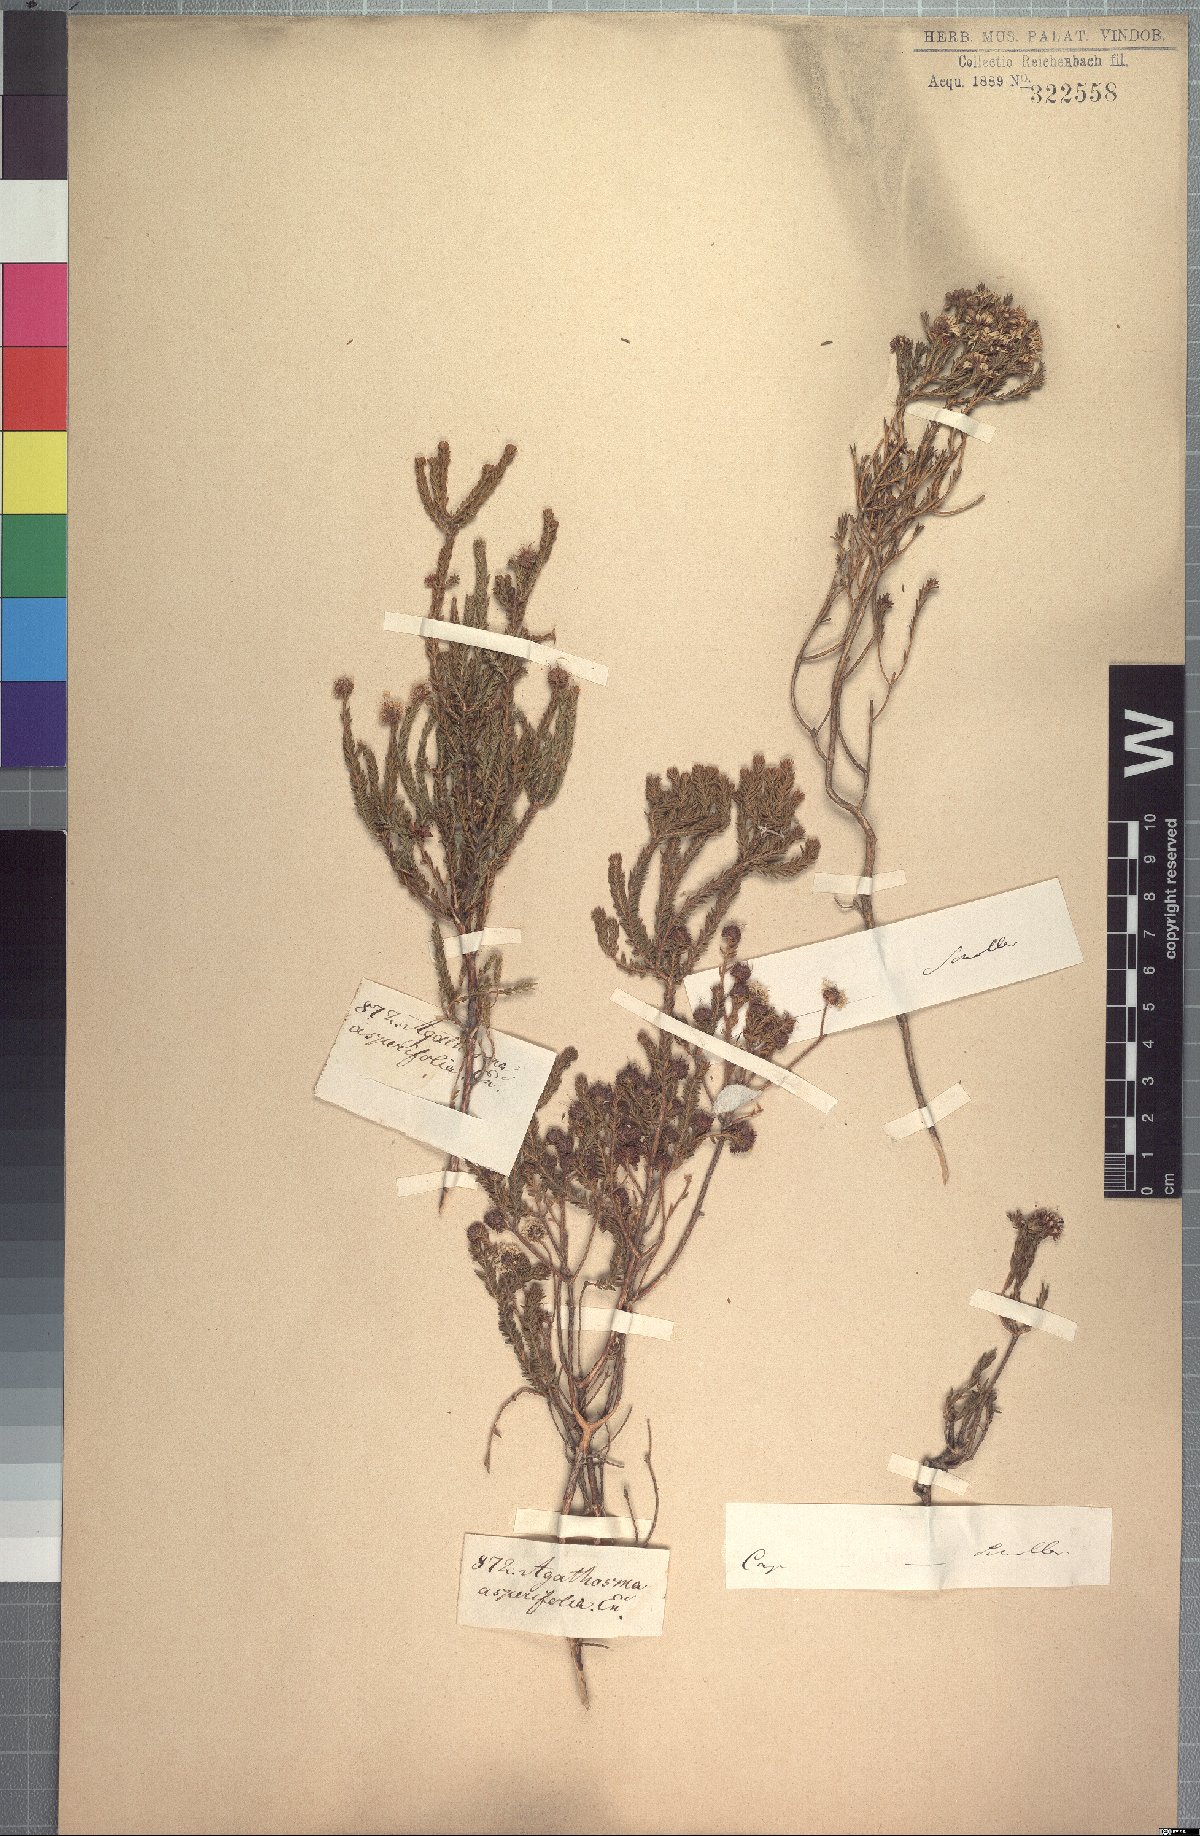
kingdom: Plantae
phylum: Tracheophyta
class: Magnoliopsida
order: Sapindales
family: Rutaceae
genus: Agathosma
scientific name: Agathosma asperifolia
